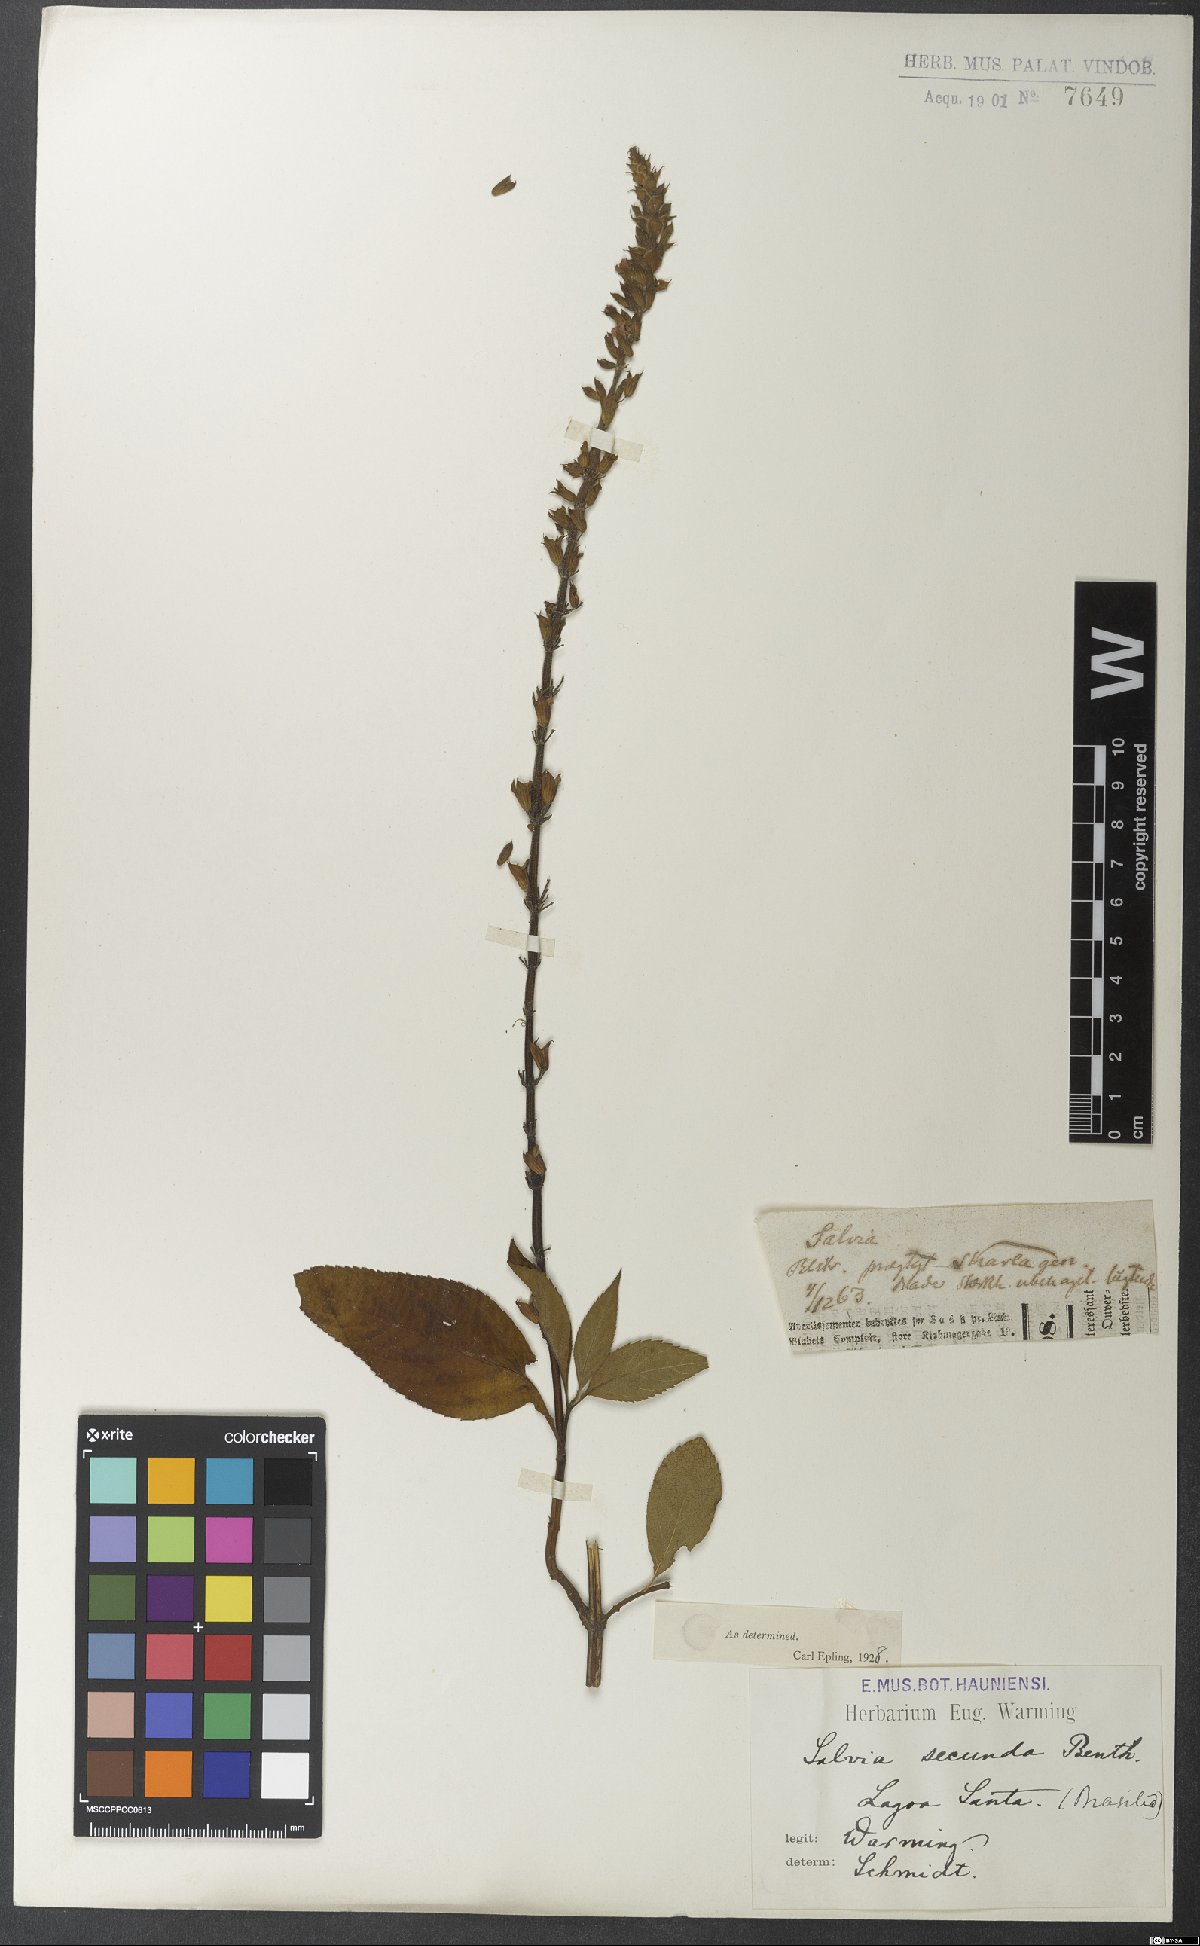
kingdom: Plantae
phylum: Tracheophyta
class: Magnoliopsida
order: Lamiales
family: Lamiaceae
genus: Salvia
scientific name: Salvia secunda
